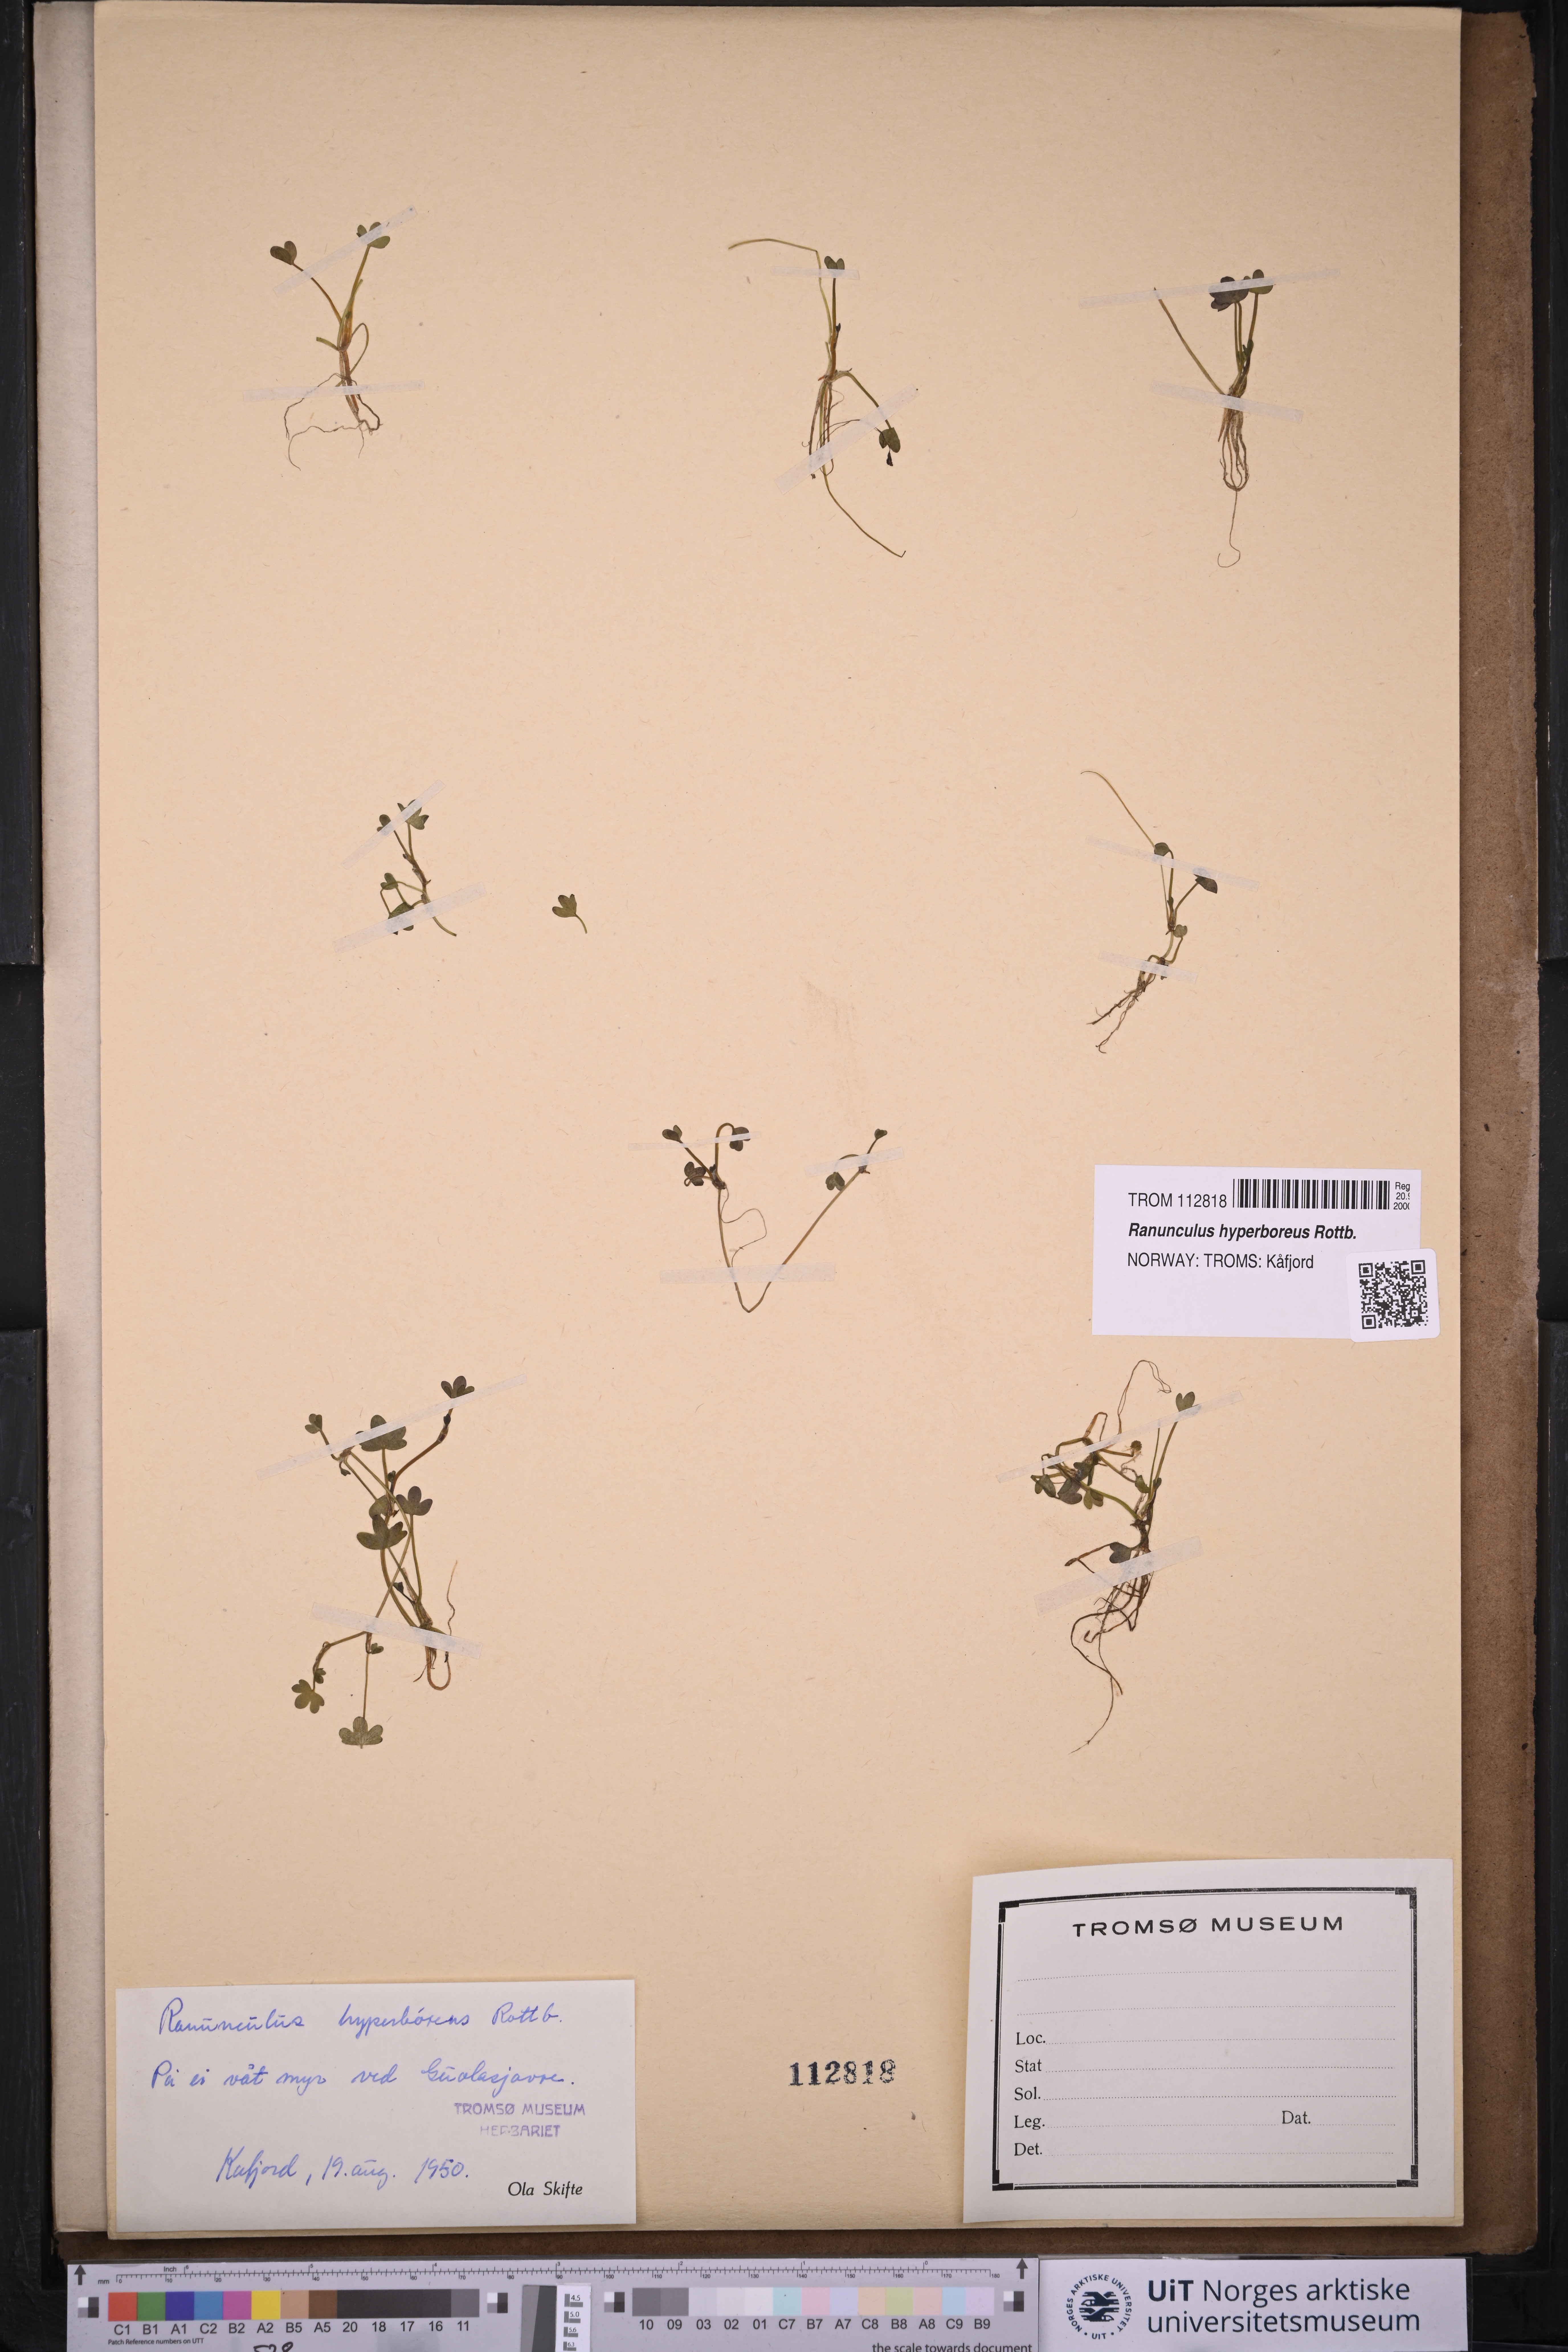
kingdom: Plantae
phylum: Tracheophyta
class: Magnoliopsida
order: Ranunculales
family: Ranunculaceae
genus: Ranunculus
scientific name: Ranunculus hyperboreus
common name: Arctic buttercup
